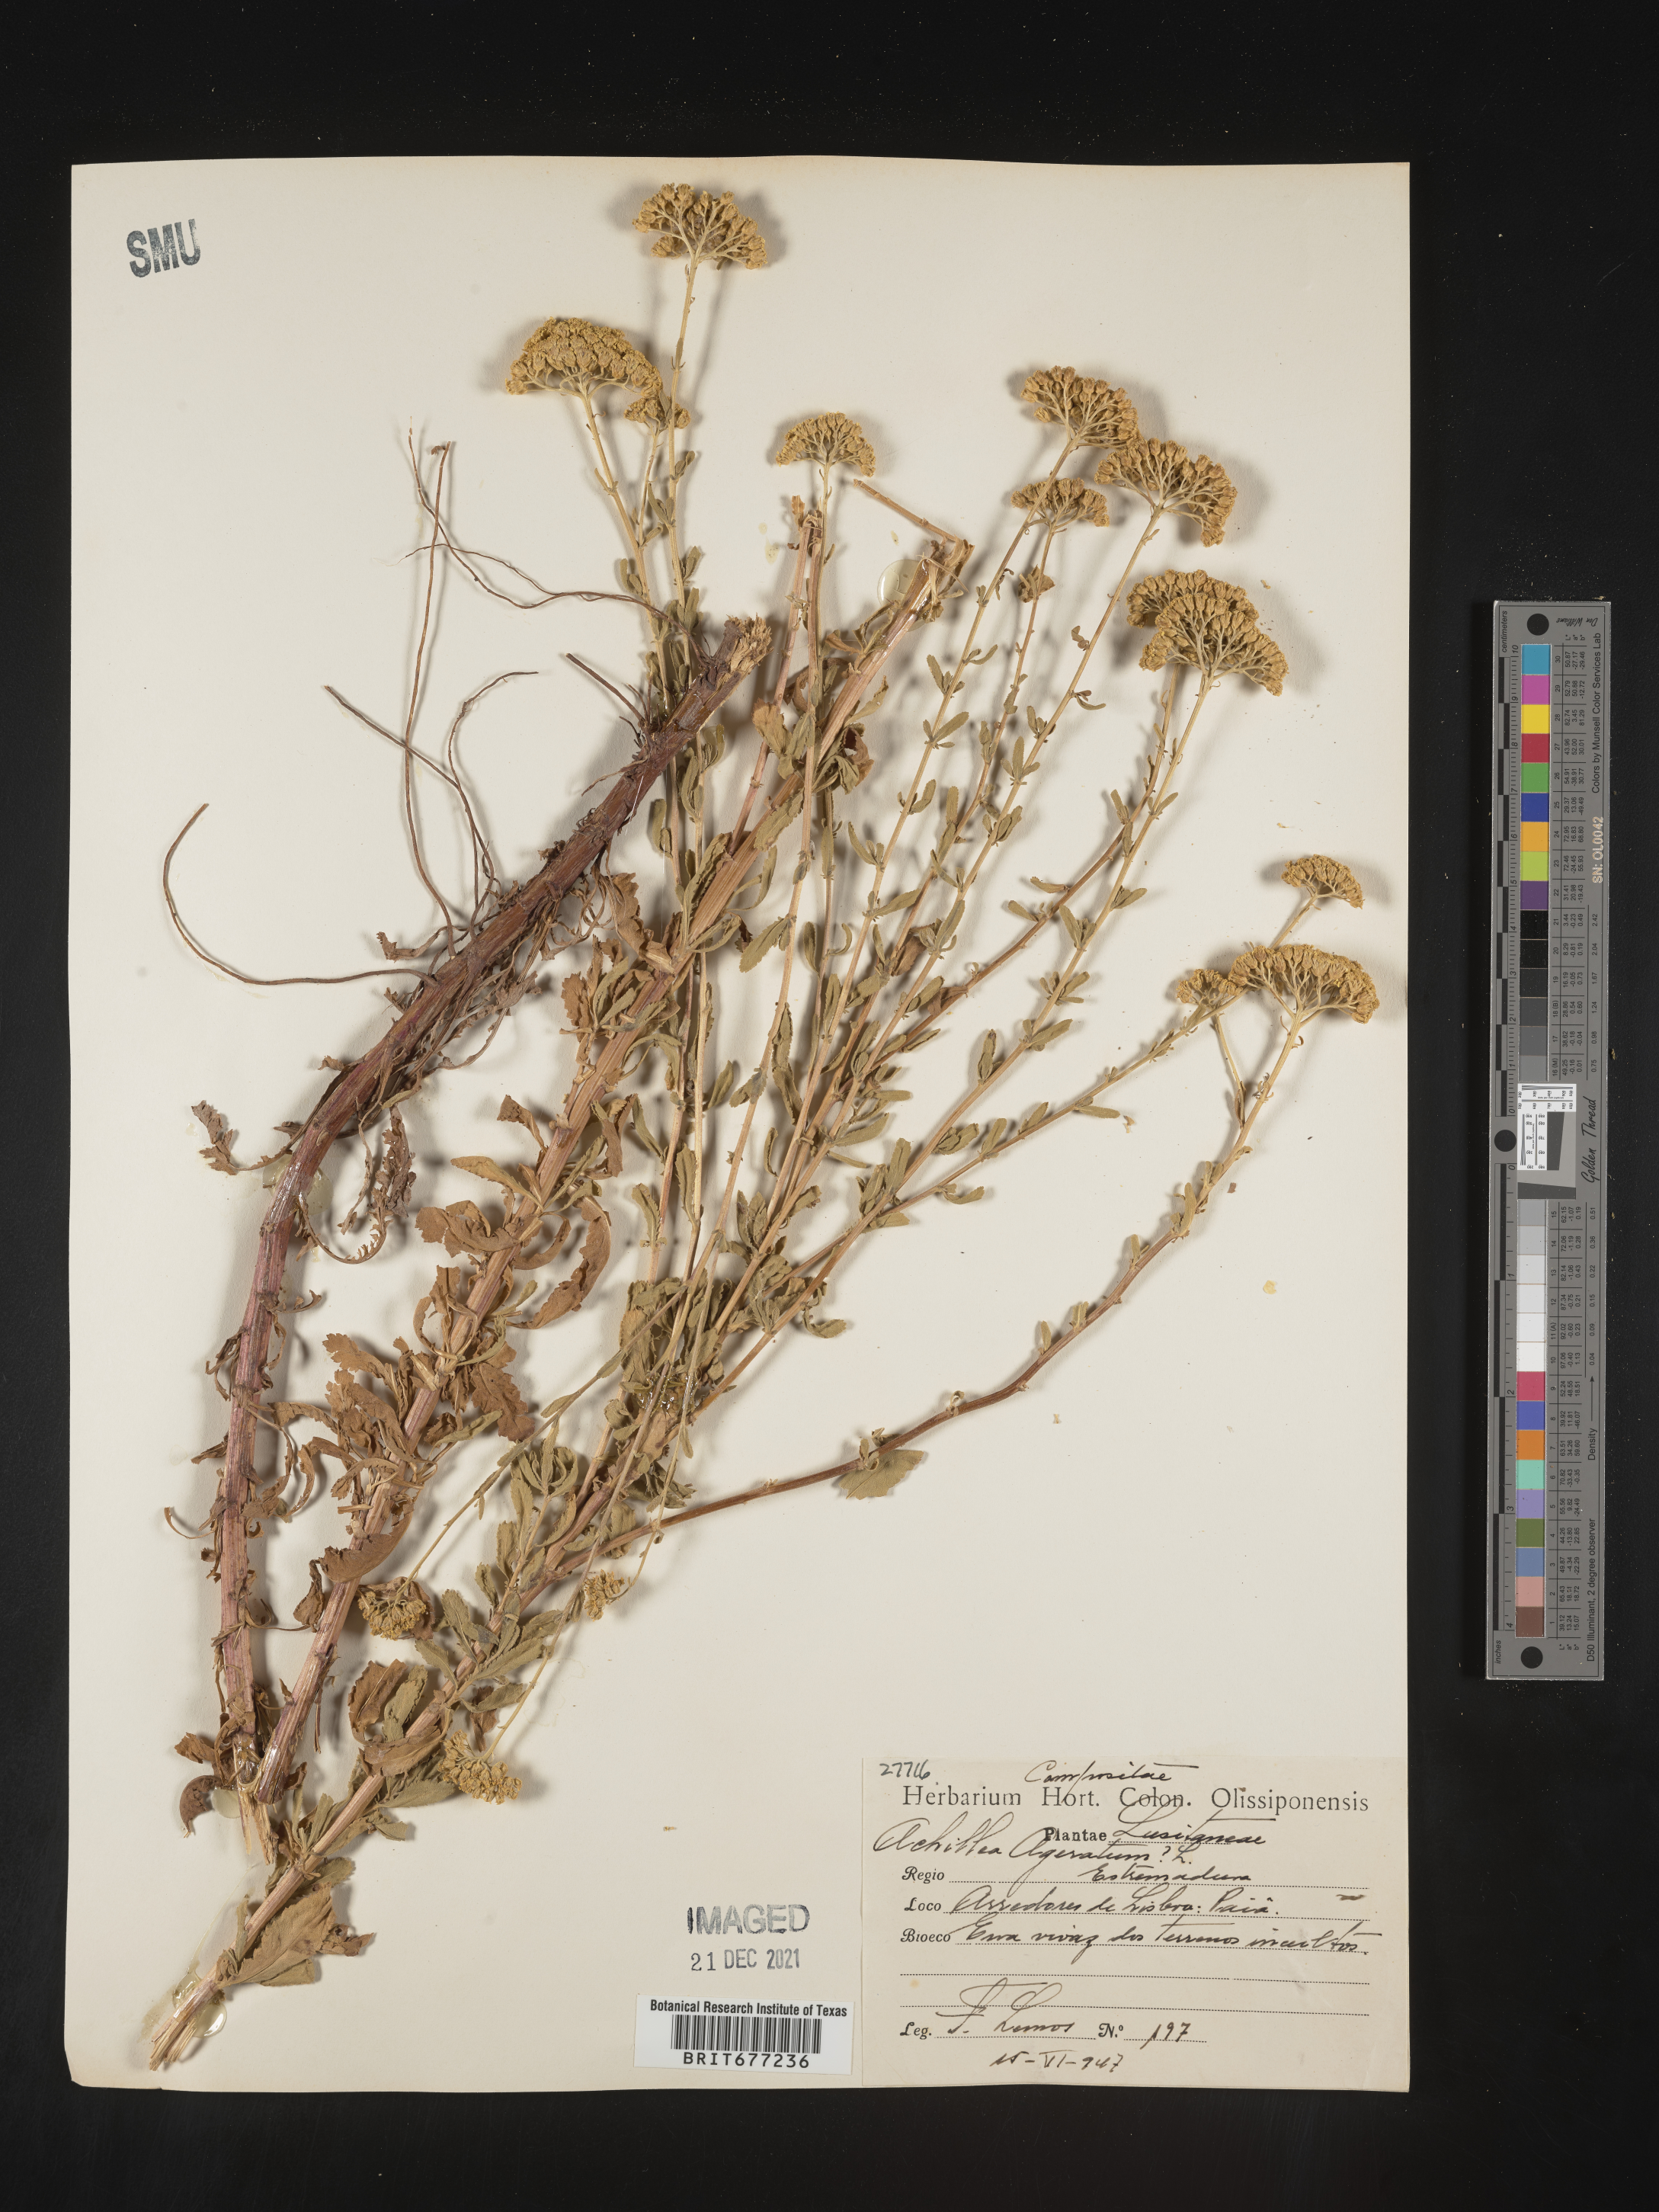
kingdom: Plantae
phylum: Tracheophyta
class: Magnoliopsida
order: Asterales
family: Asteraceae
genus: Achillea
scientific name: Achillea
